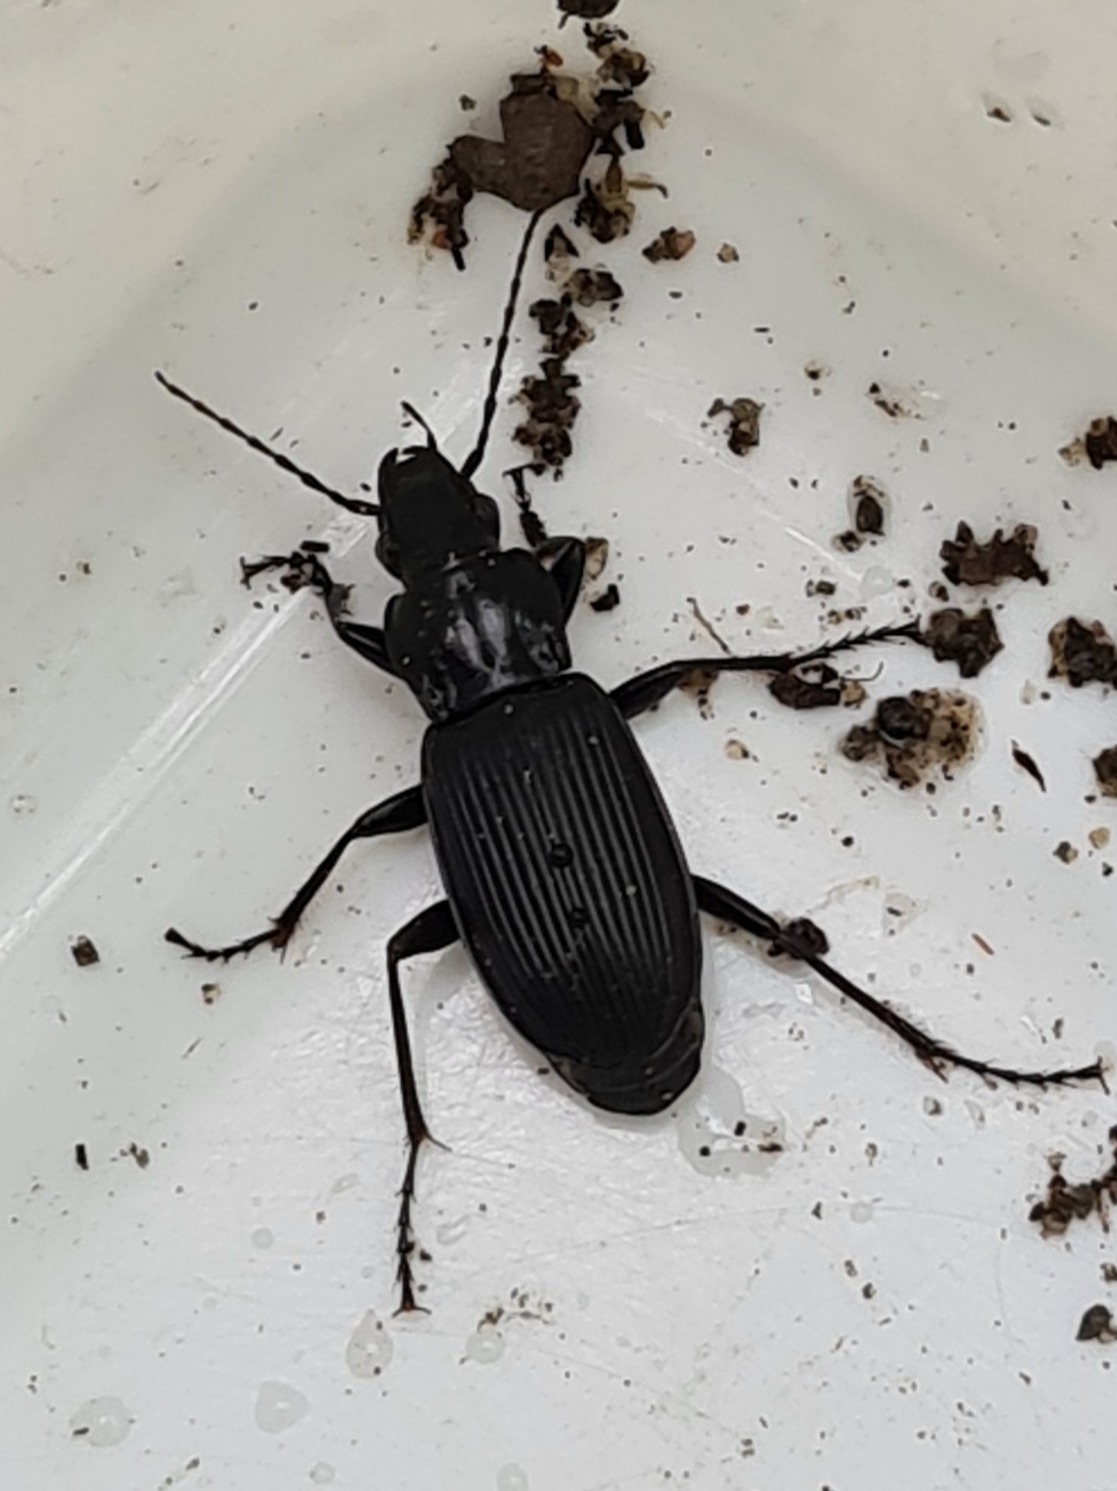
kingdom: Animalia
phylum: Arthropoda
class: Insecta
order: Coleoptera
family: Carabidae
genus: Pterostichus
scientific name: Pterostichus niger
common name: Skovjordløber
